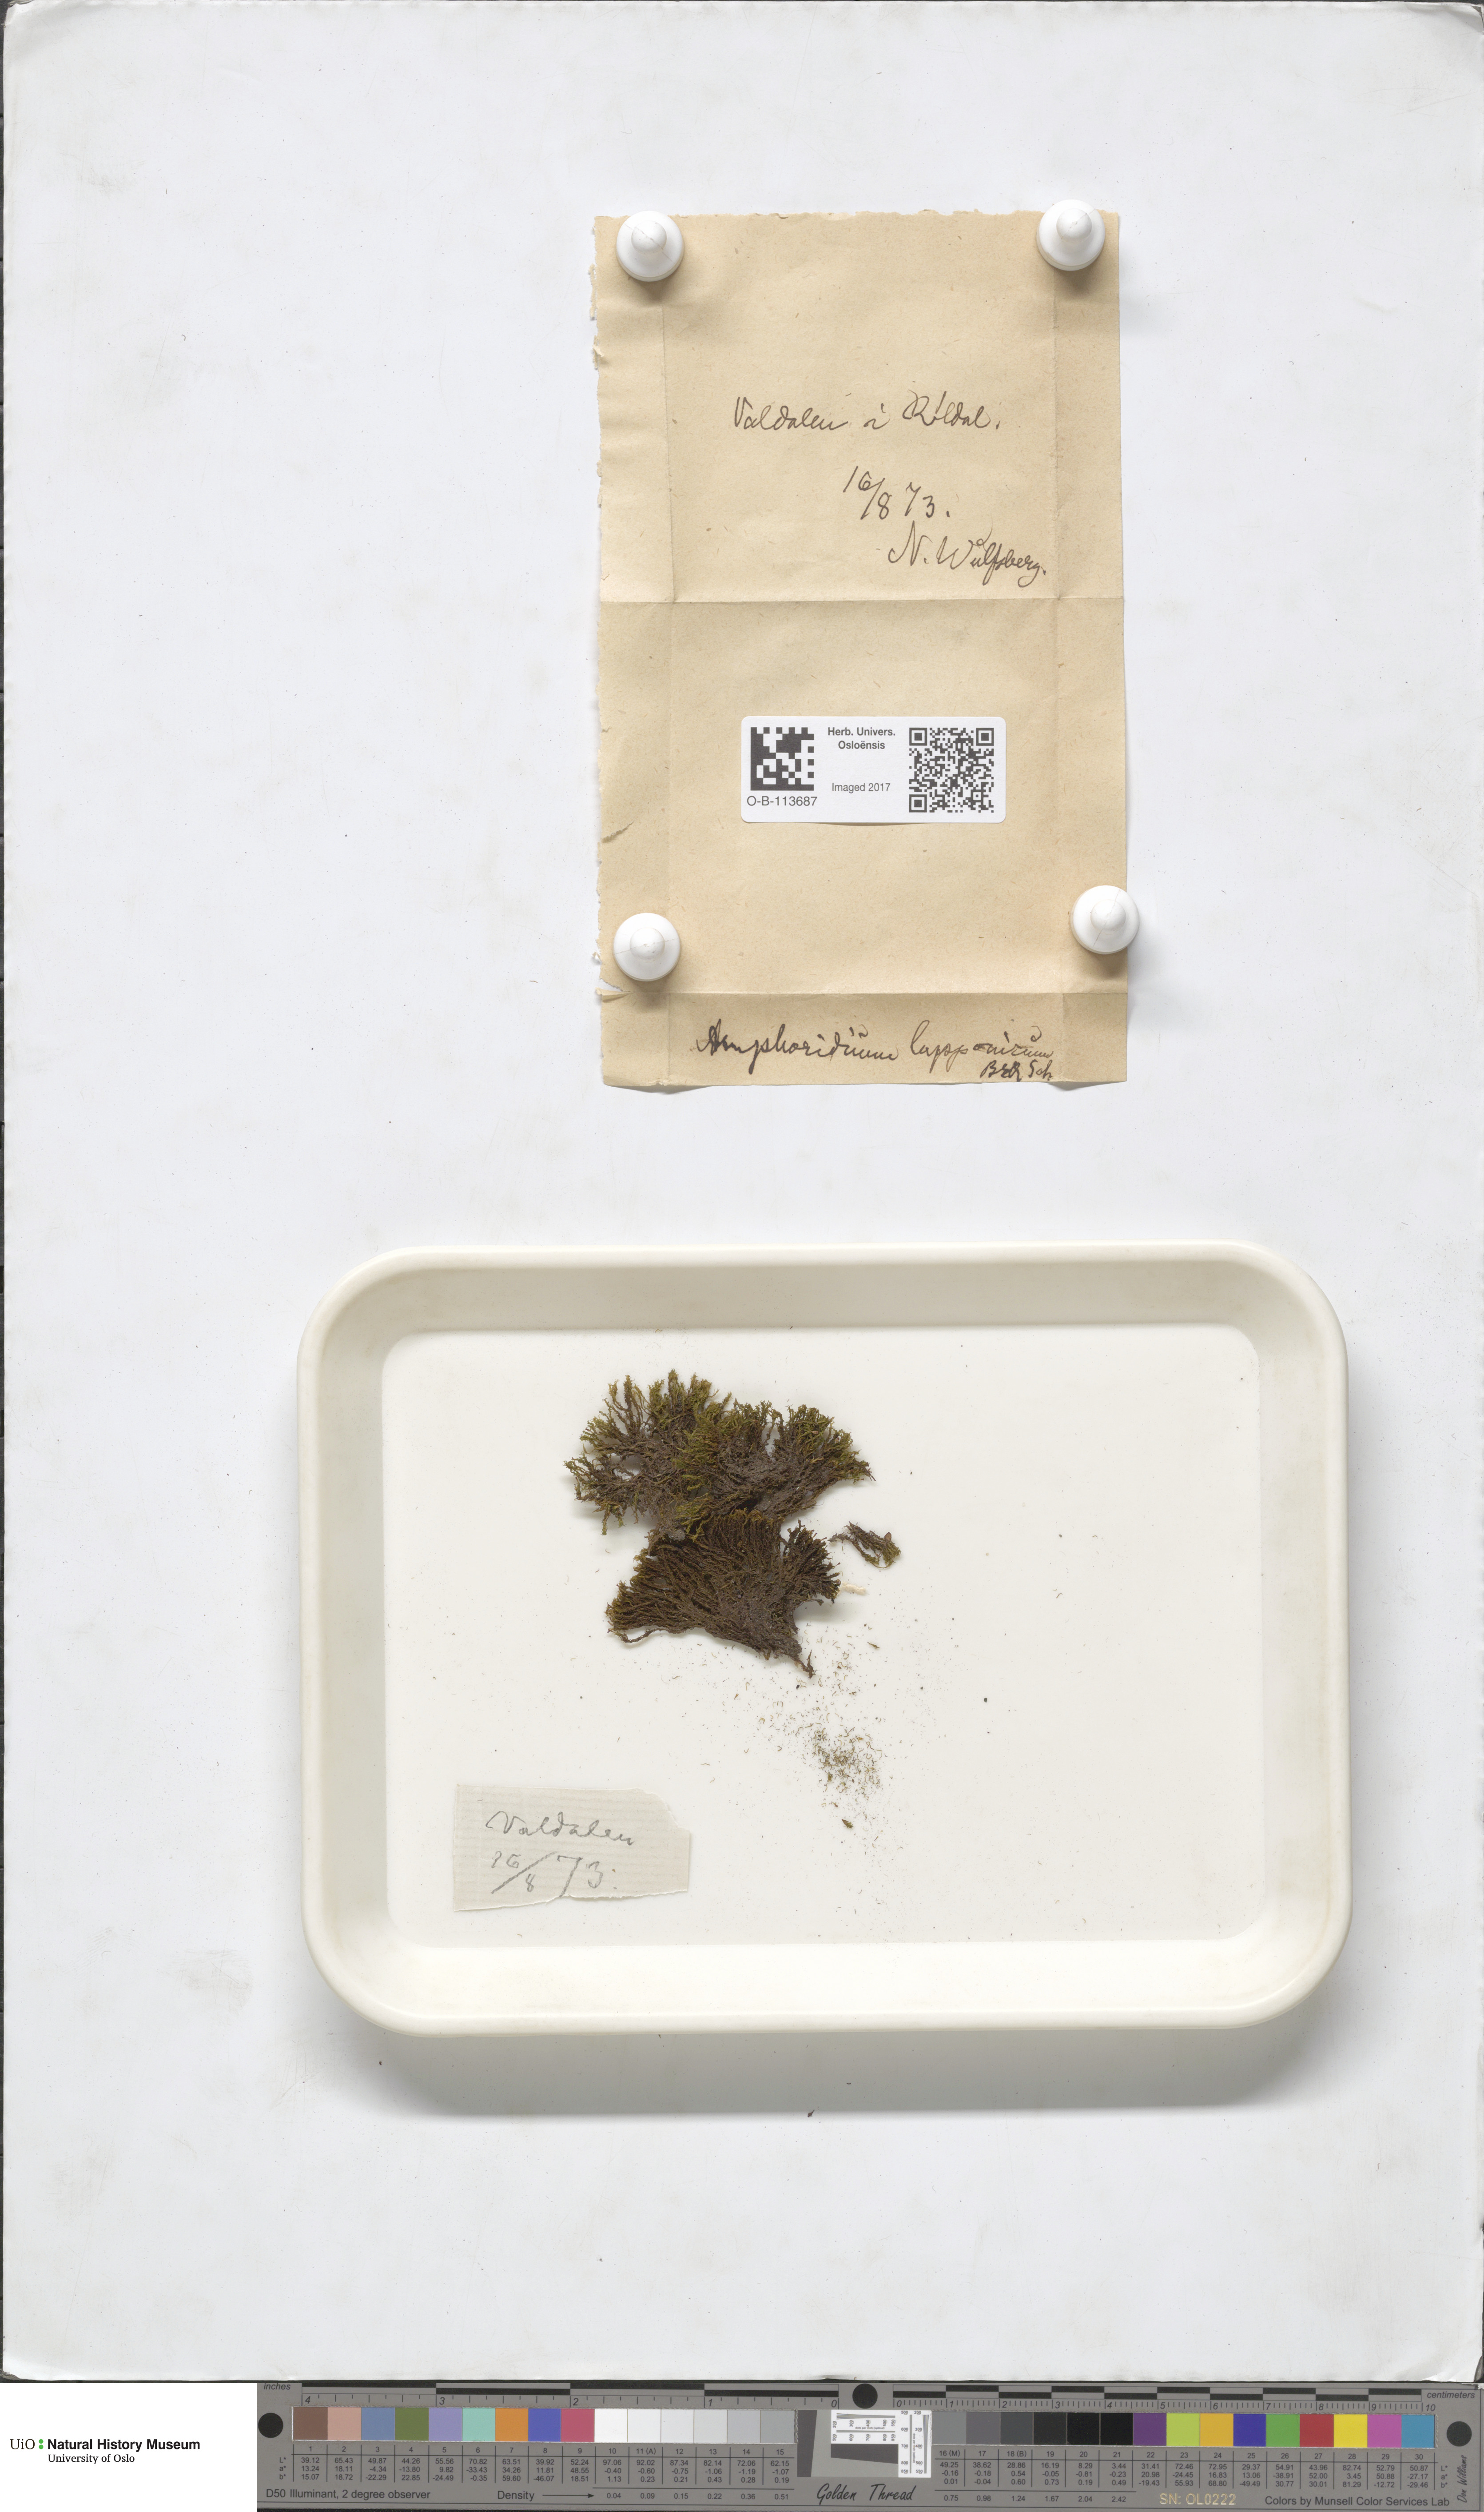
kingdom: Plantae
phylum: Bryophyta
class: Bryopsida
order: Dicranales
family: Amphidiaceae
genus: Amphidium
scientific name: Amphidium lapponicum
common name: Lapland yoke moss
